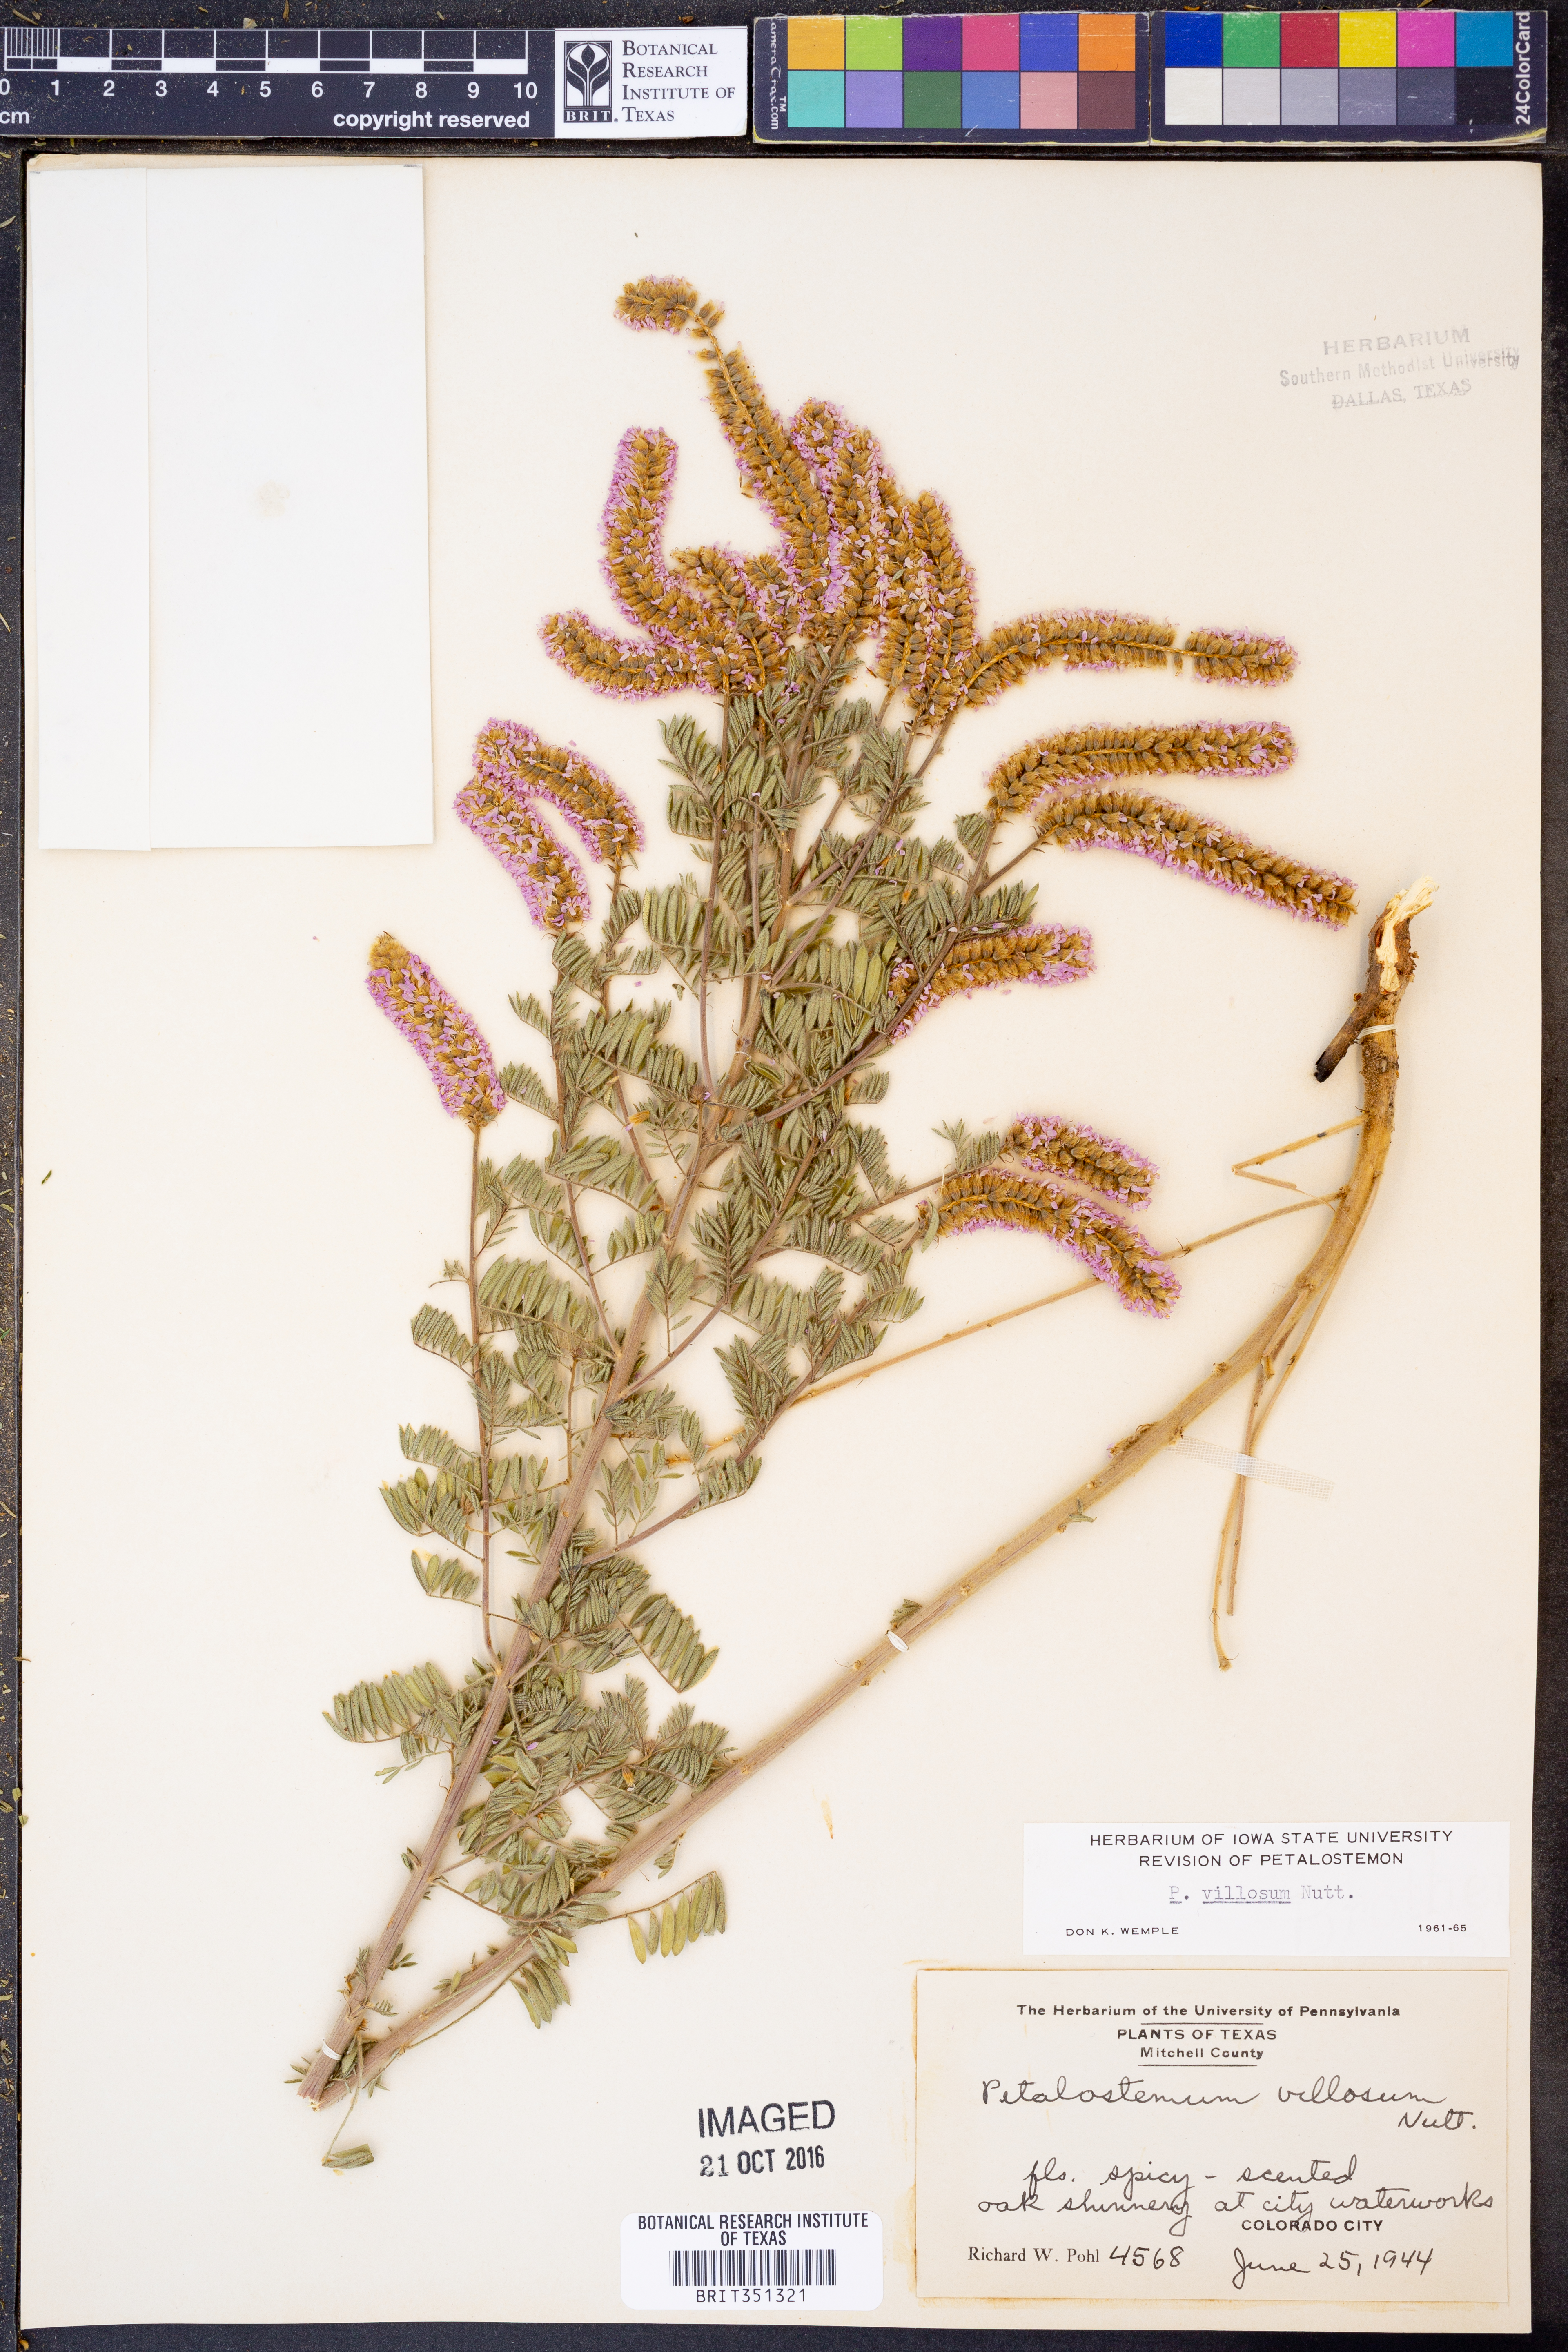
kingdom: Plantae
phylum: Tracheophyta
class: Magnoliopsida
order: Fabales
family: Fabaceae
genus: Dalea
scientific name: Dalea villosa
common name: Silky prairie-clover
